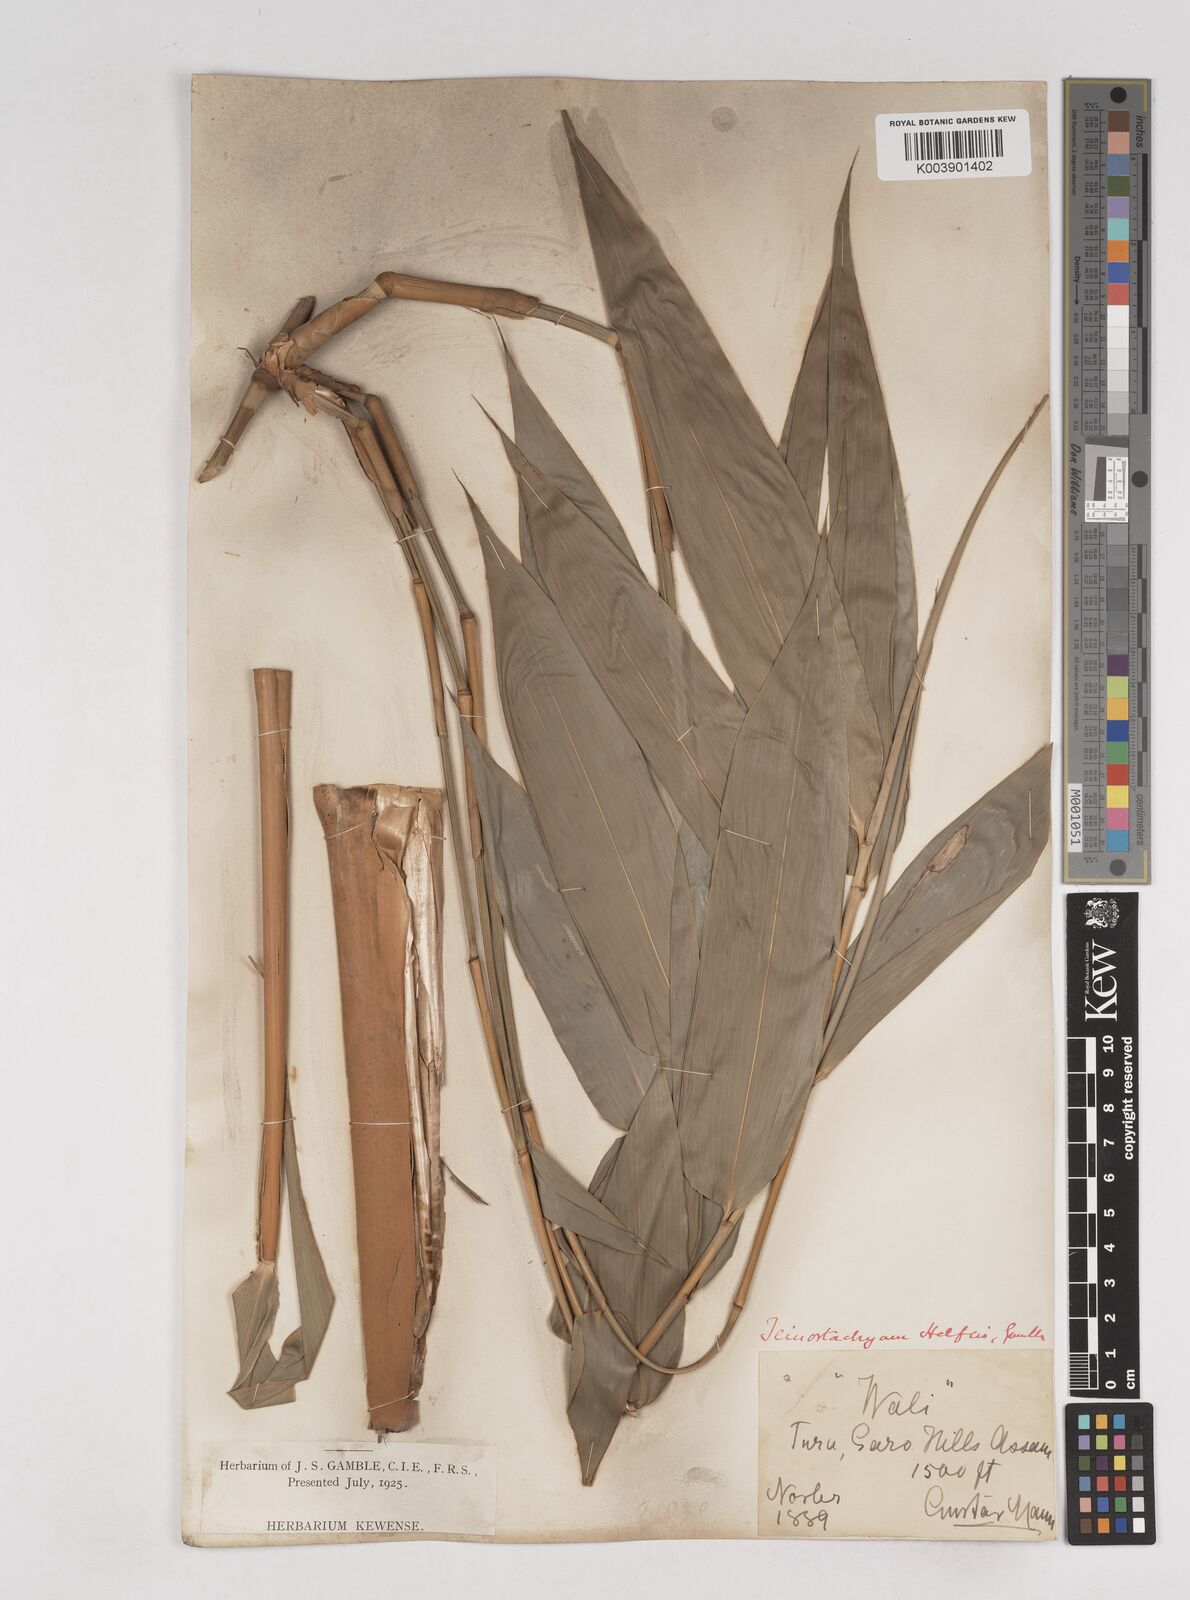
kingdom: Plantae
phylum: Tracheophyta
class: Liliopsida
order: Poales
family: Poaceae
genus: Schizostachyum
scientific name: Schizostachyum helferi
